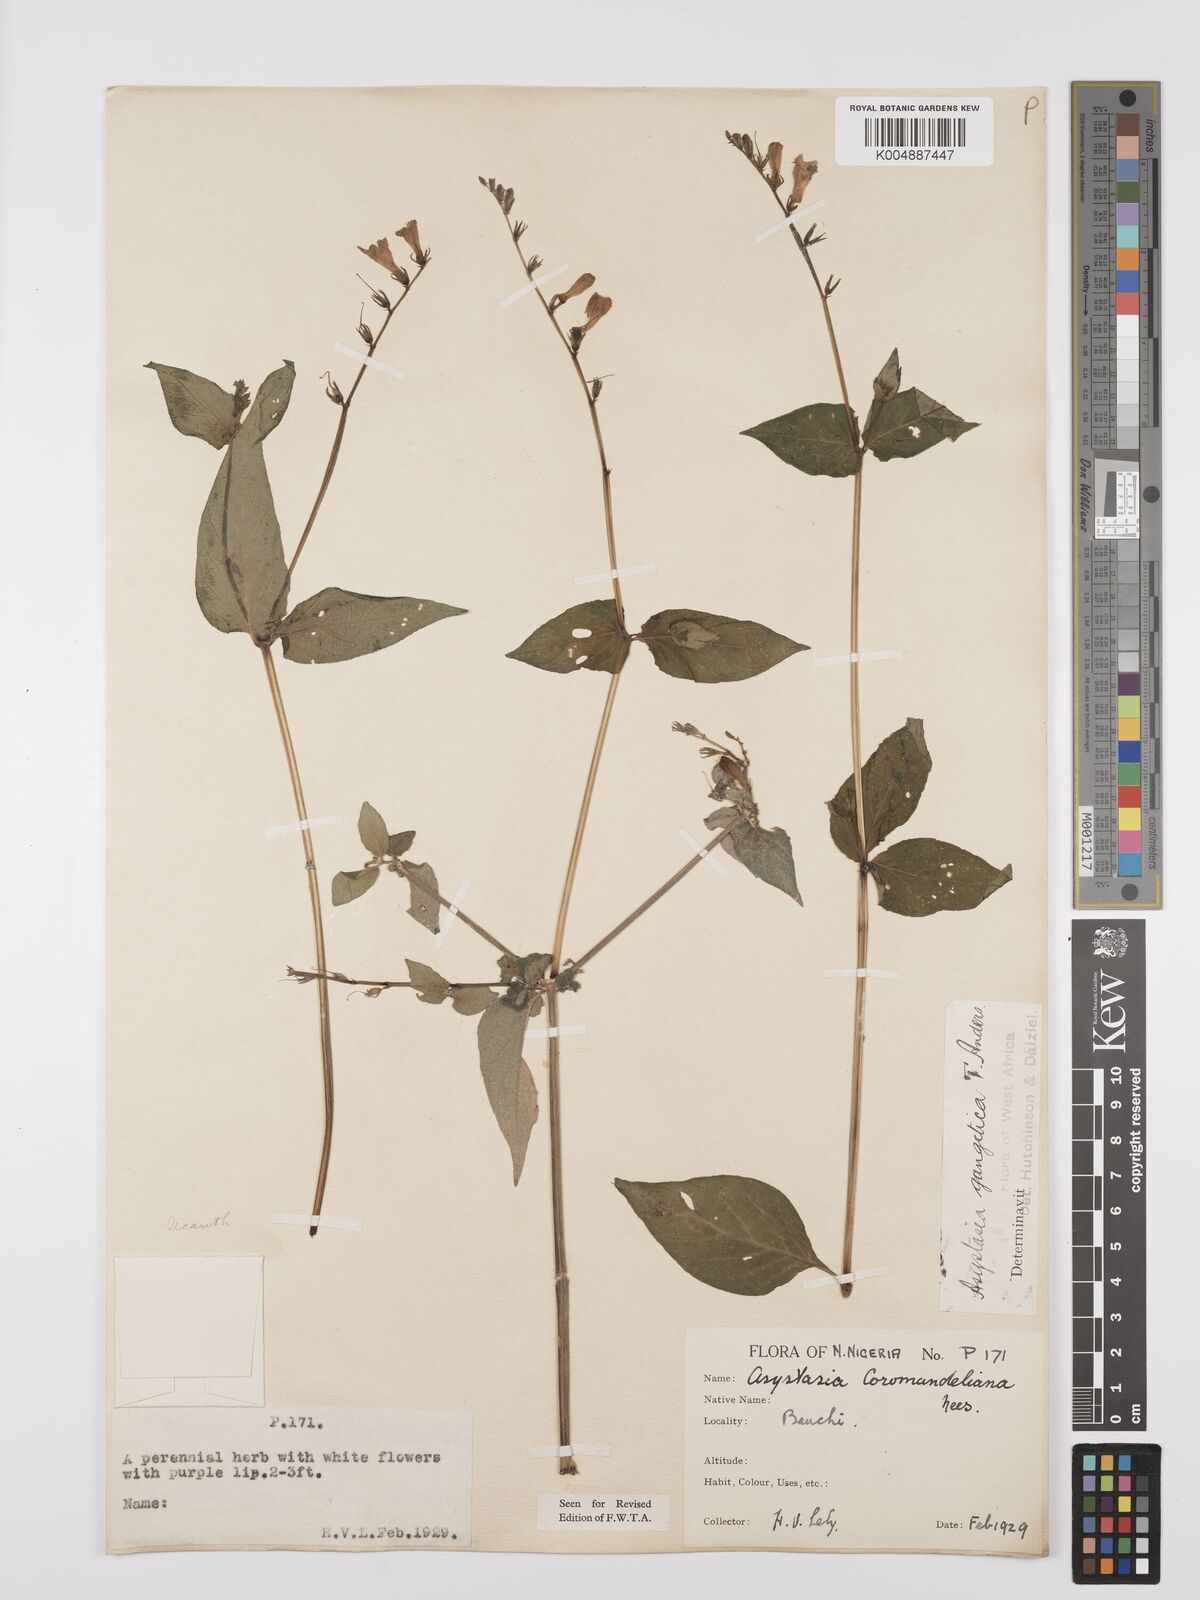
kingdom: Plantae
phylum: Tracheophyta
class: Magnoliopsida
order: Lamiales
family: Acanthaceae
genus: Asystasia
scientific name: Asystasia gangetica
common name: Chinese violet
